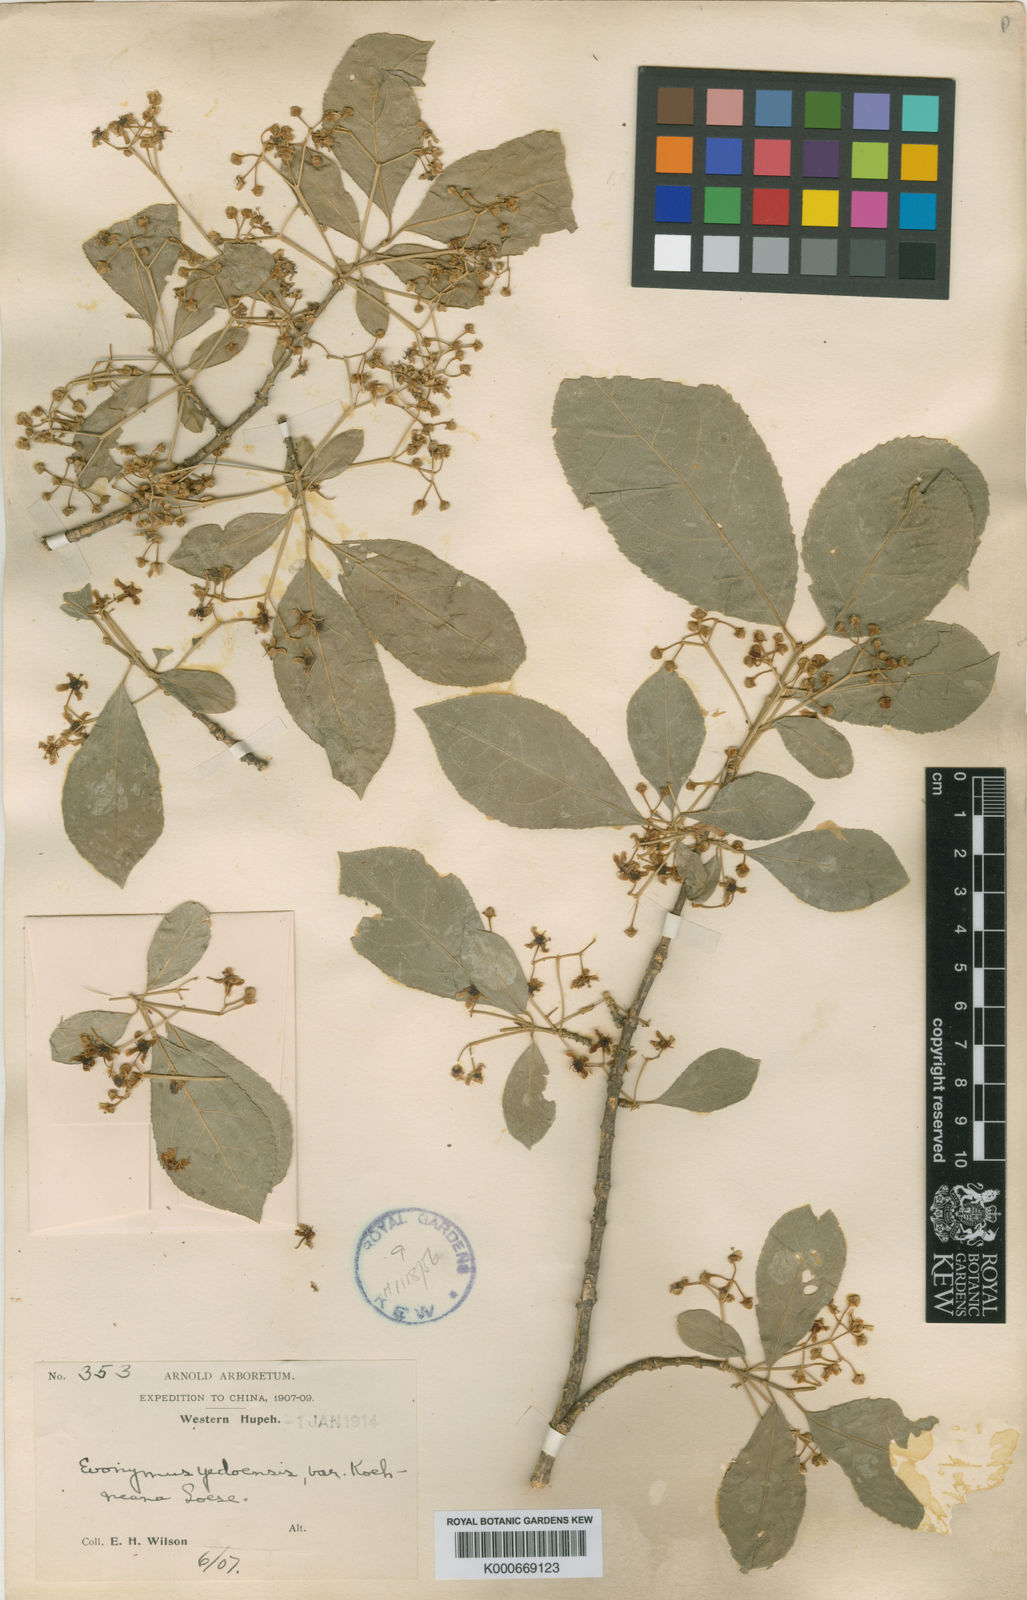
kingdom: Plantae
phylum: Tracheophyta
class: Magnoliopsida
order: Celastrales
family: Celastraceae
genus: Euonymus
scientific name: Euonymus hamiltonianus
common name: Hamilton's spindletree
